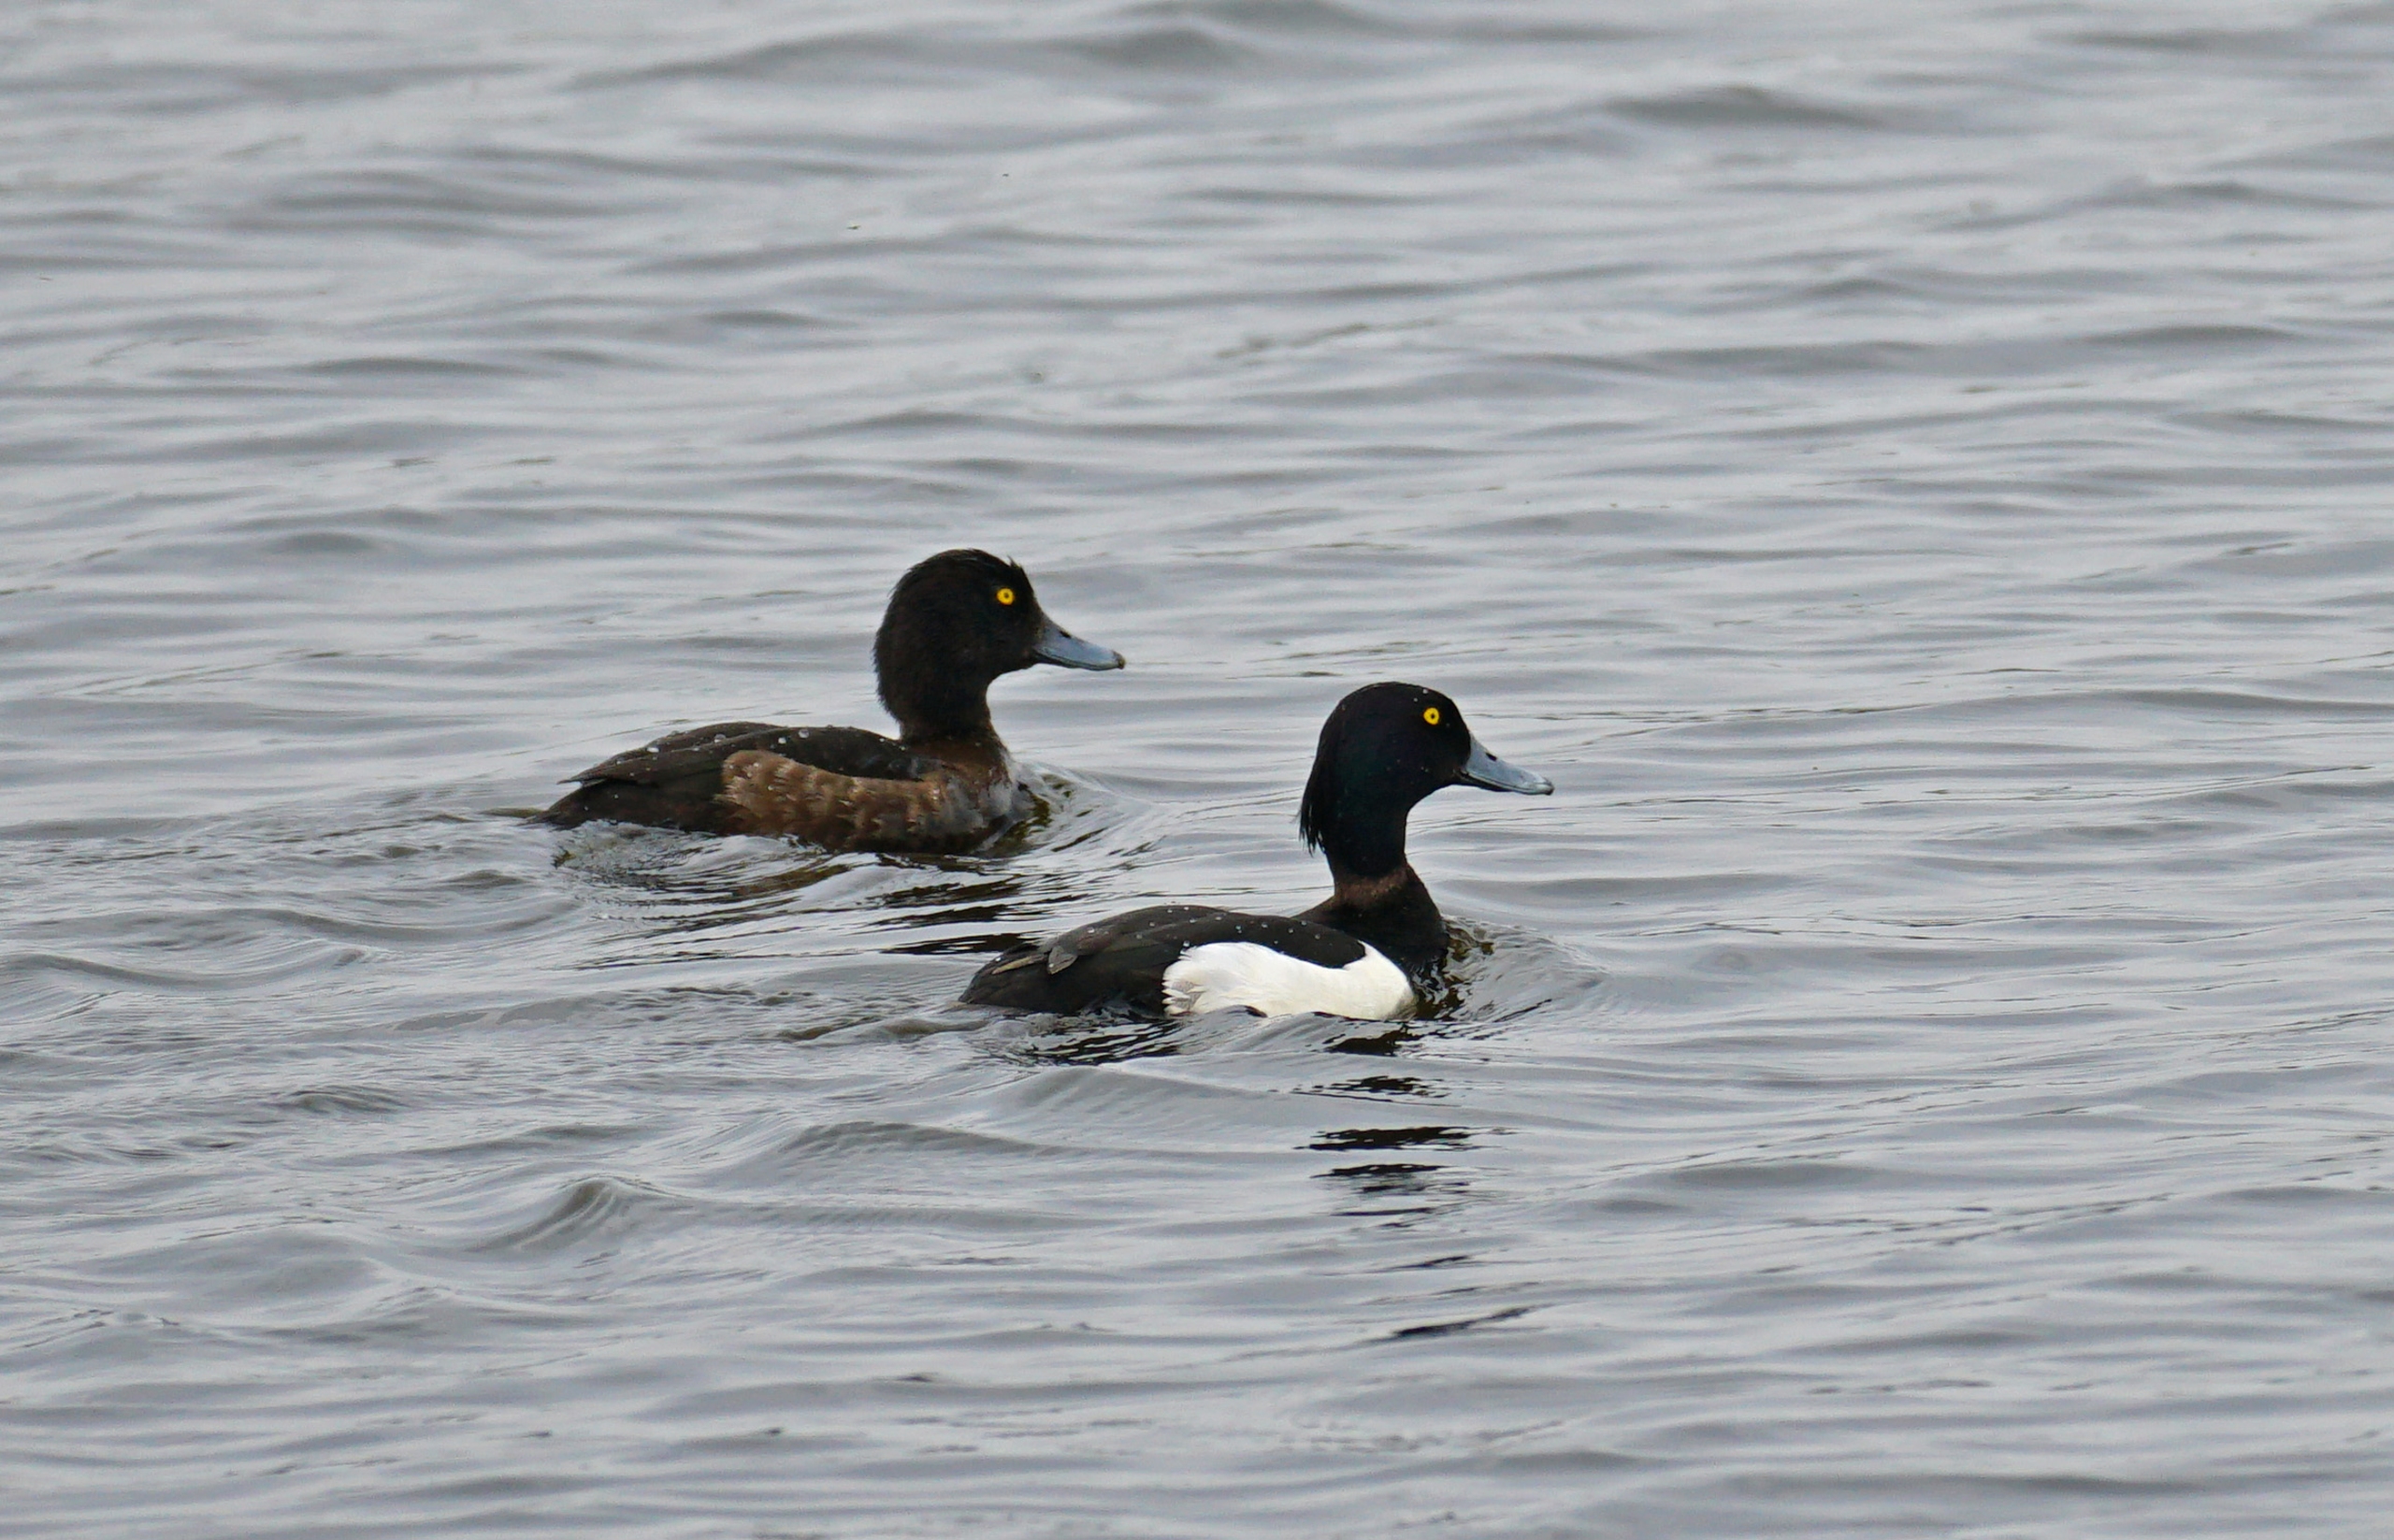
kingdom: Animalia
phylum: Chordata
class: Aves
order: Anseriformes
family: Anatidae
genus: Aythya
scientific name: Aythya fuligula
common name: Troldand
